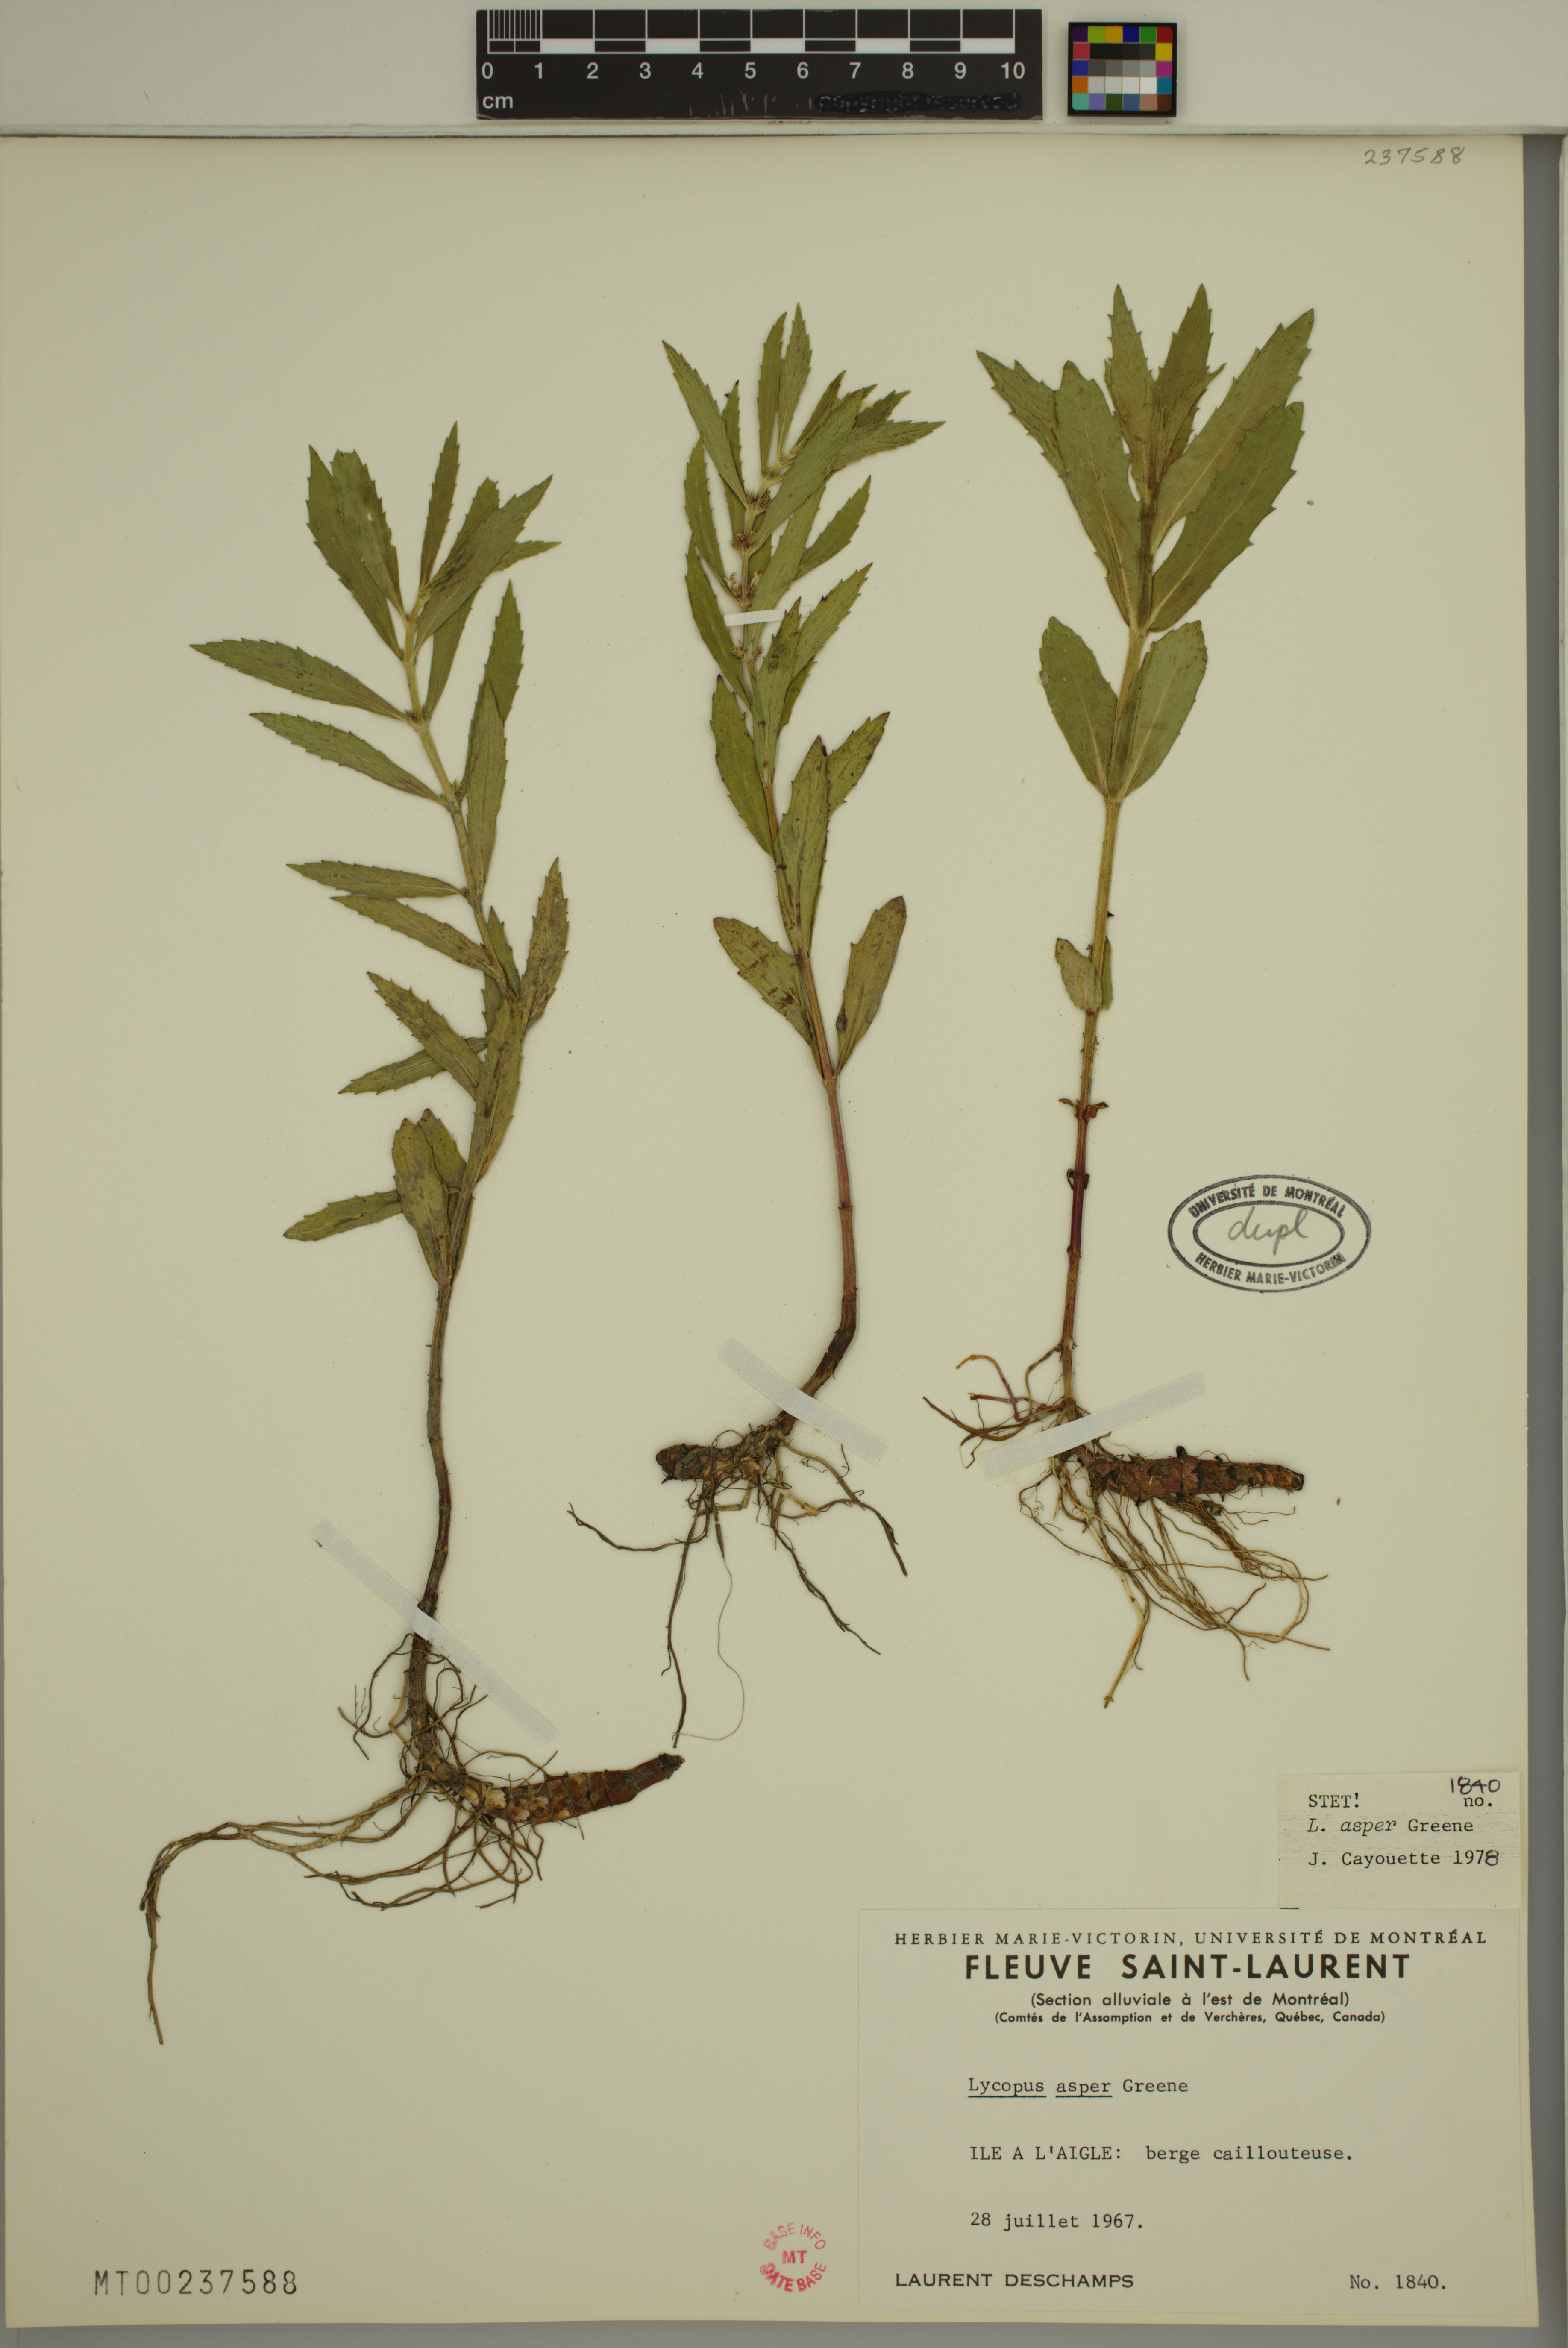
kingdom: Plantae
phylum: Tracheophyta
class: Magnoliopsida
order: Lamiales
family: Lamiaceae
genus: Lycopus
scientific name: Lycopus asper
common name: Rough water-horehound
